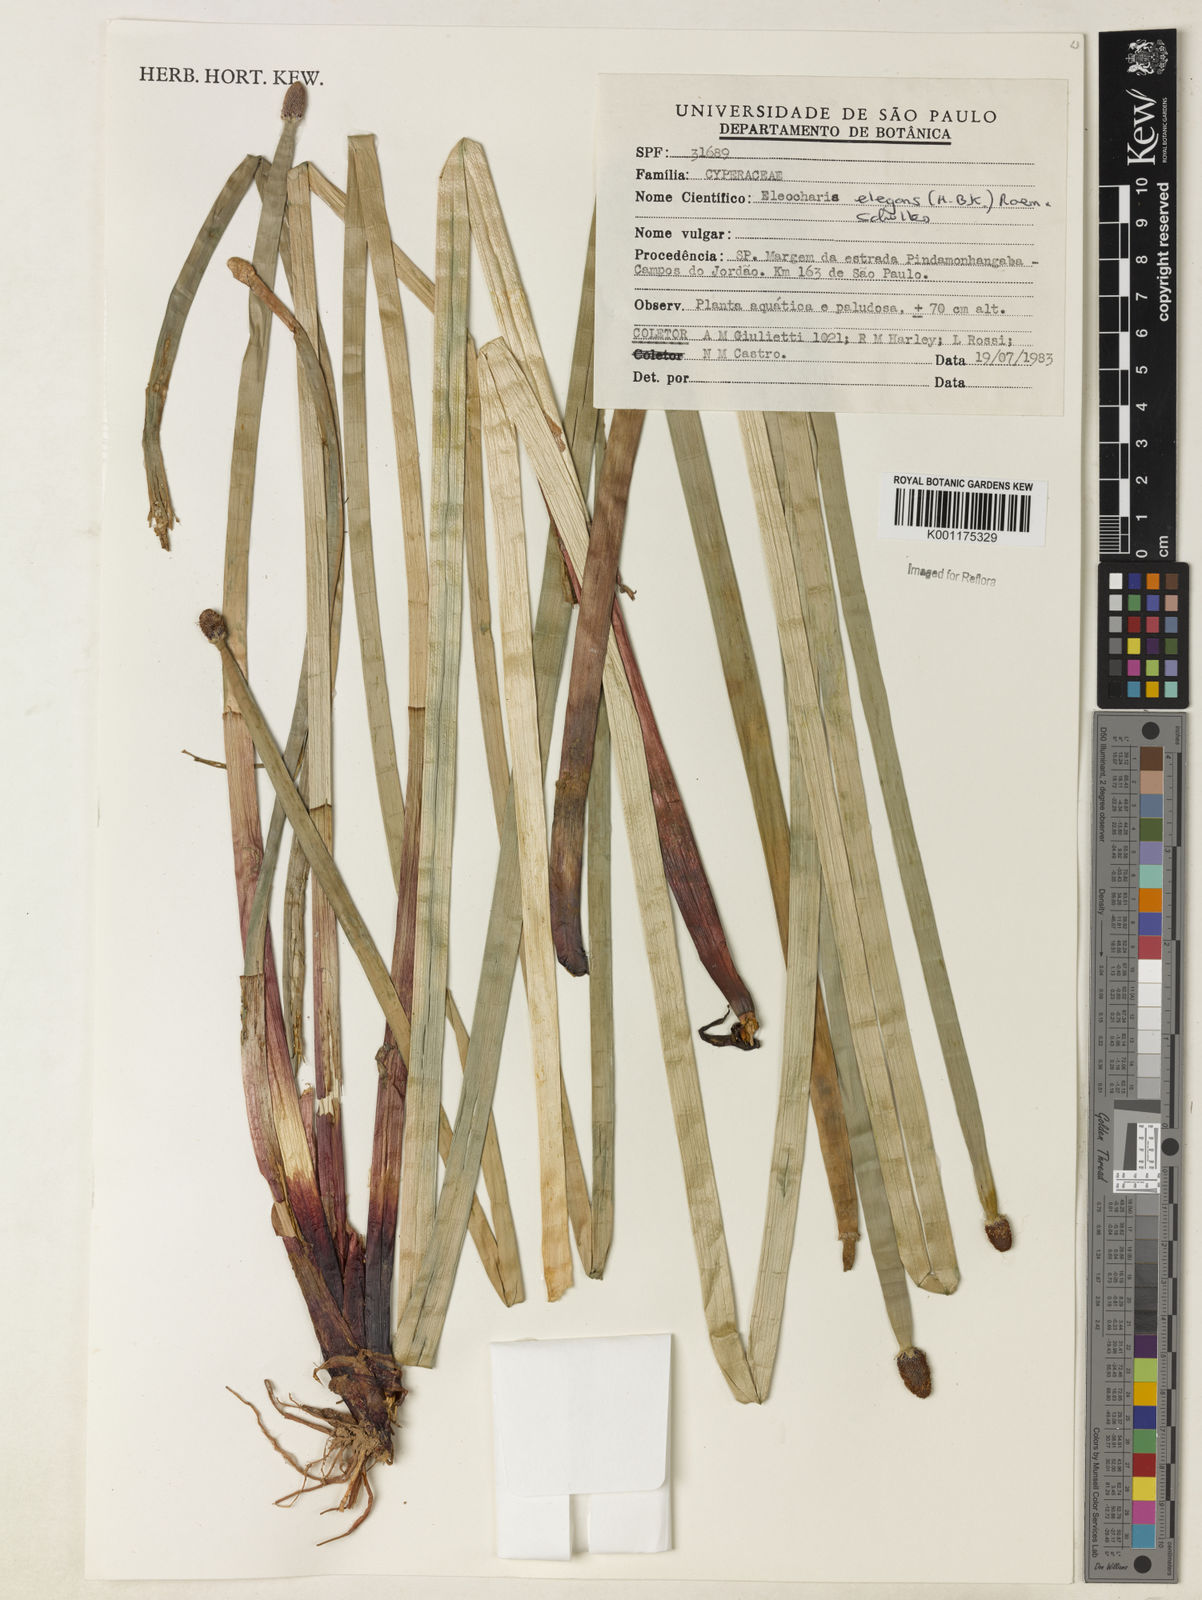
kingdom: Plantae
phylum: Tracheophyta
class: Liliopsida
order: Poales
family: Cyperaceae
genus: Eleocharis
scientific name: Eleocharis elegans
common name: Elegant spike-rush
